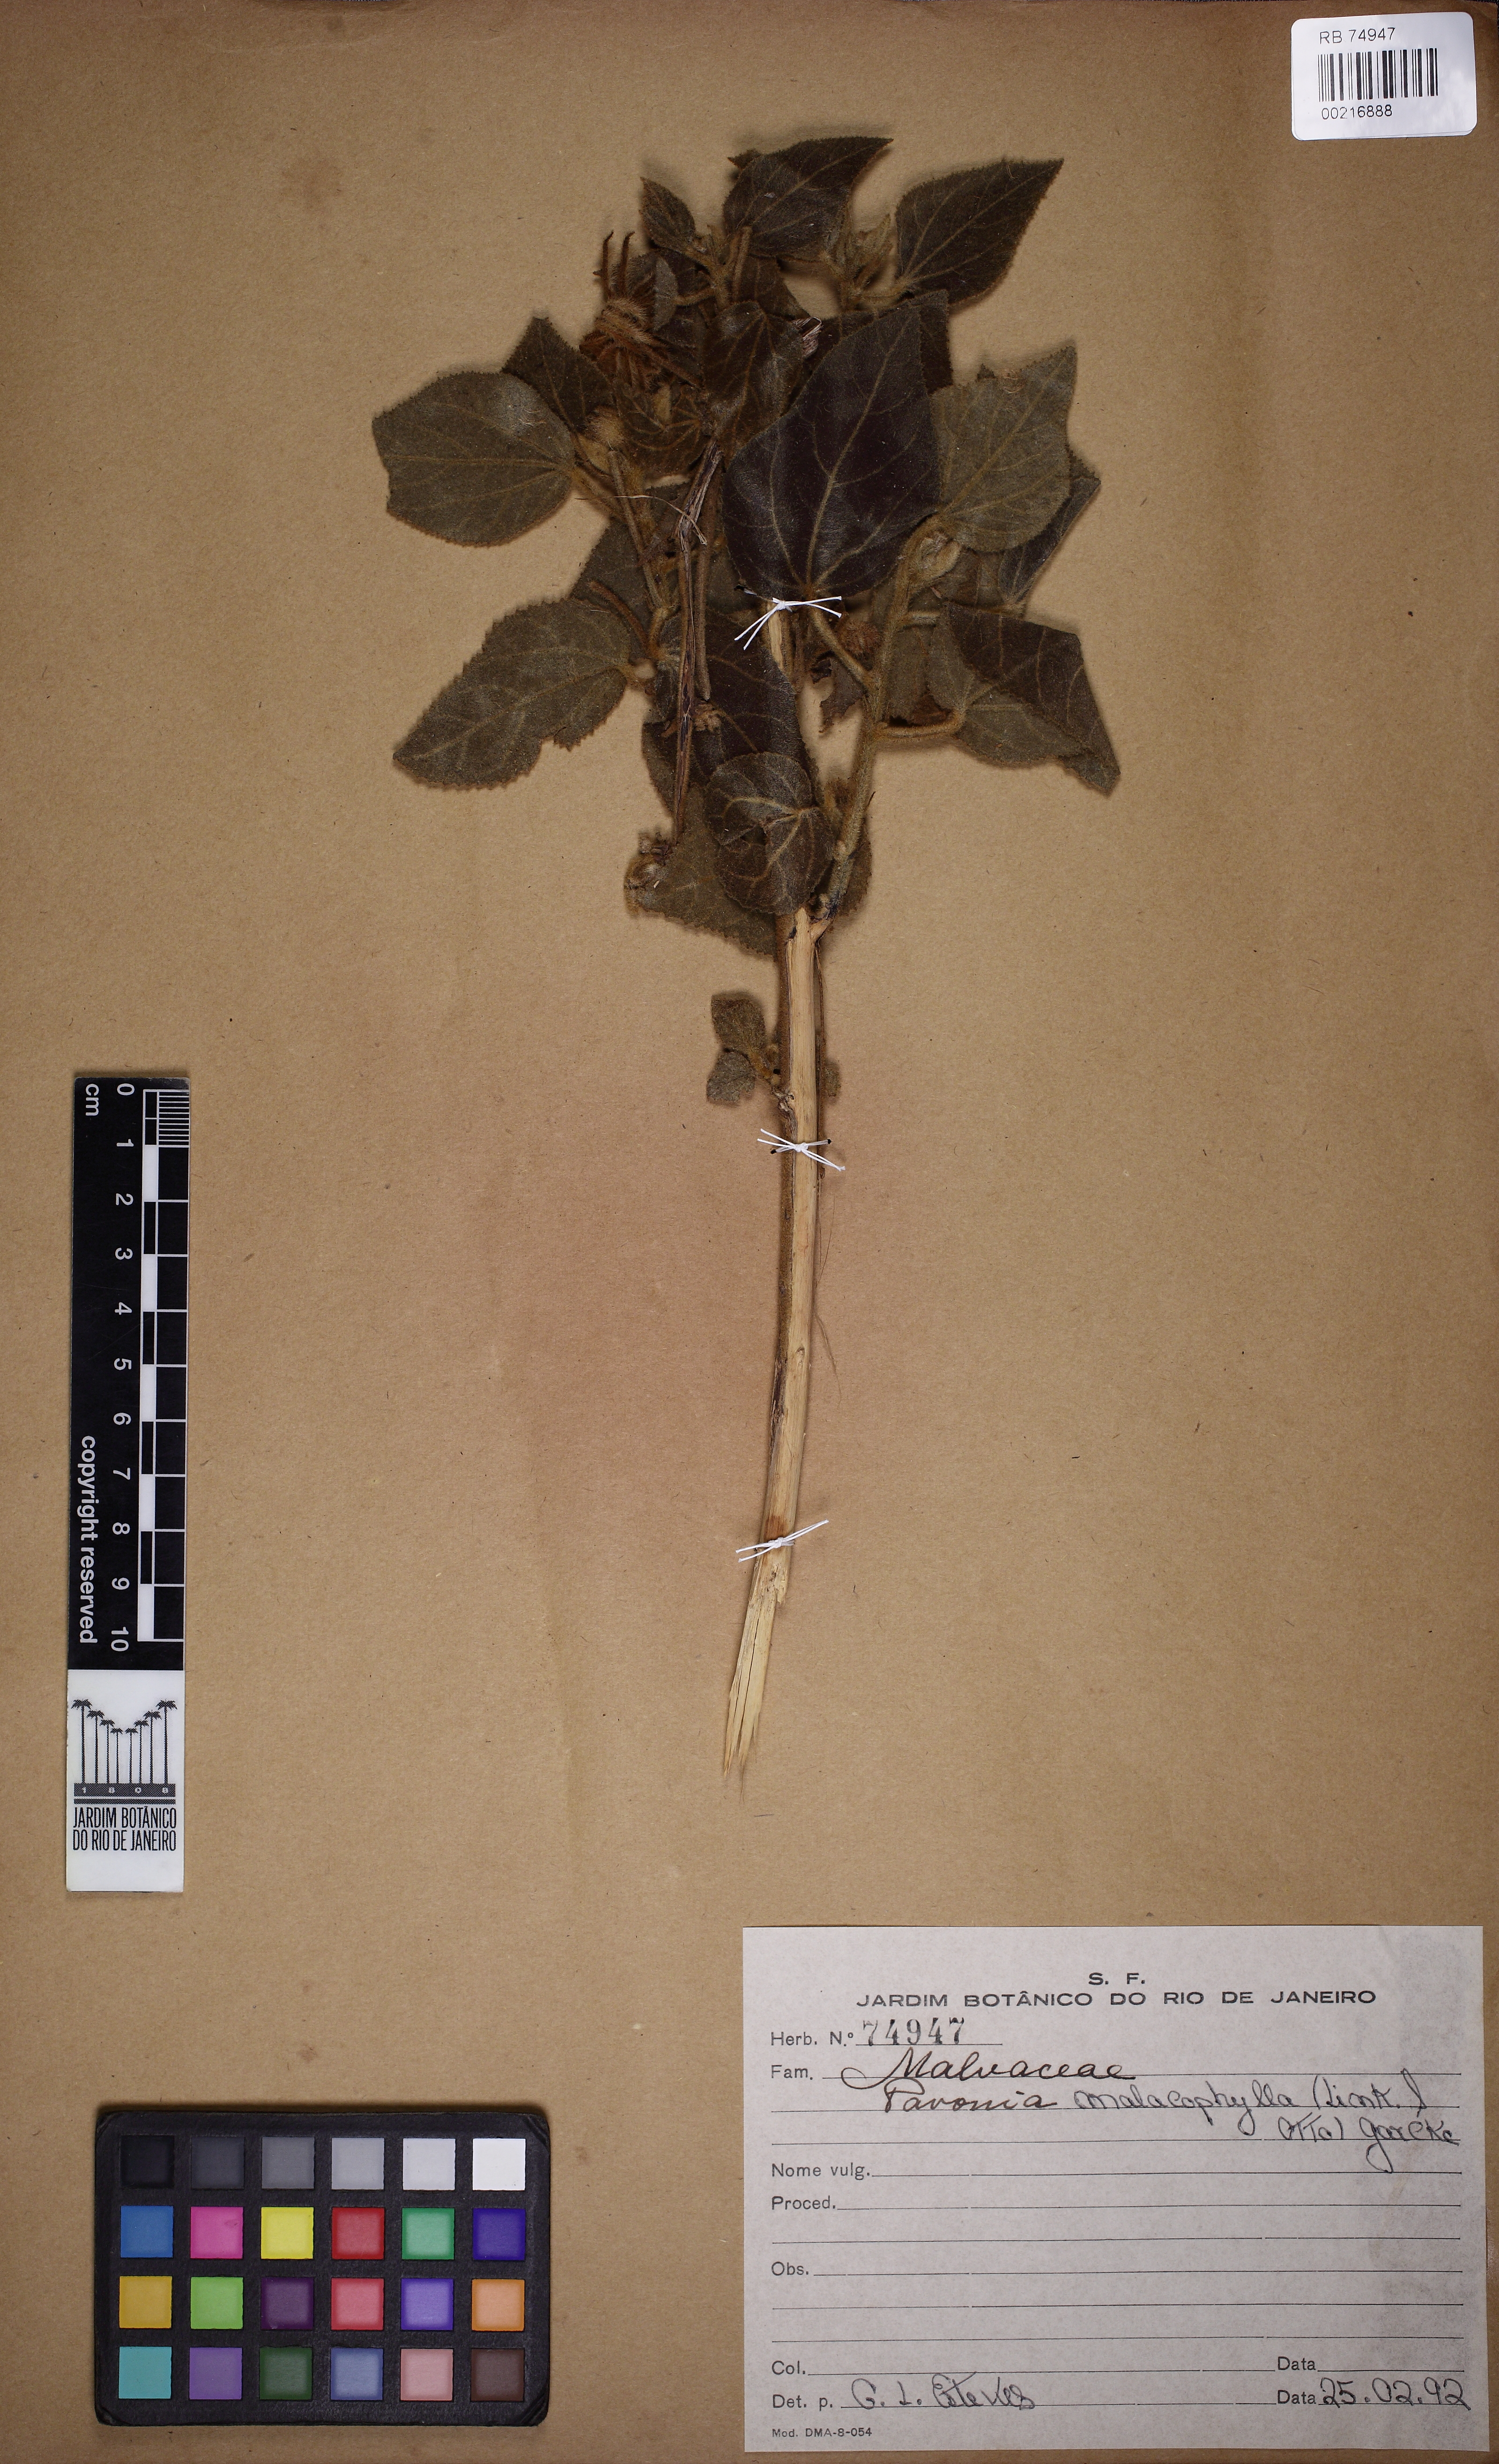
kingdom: Plantae
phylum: Tracheophyta
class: Magnoliopsida
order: Malvales
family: Malvaceae
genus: Pavonia
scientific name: Pavonia malacophylla
